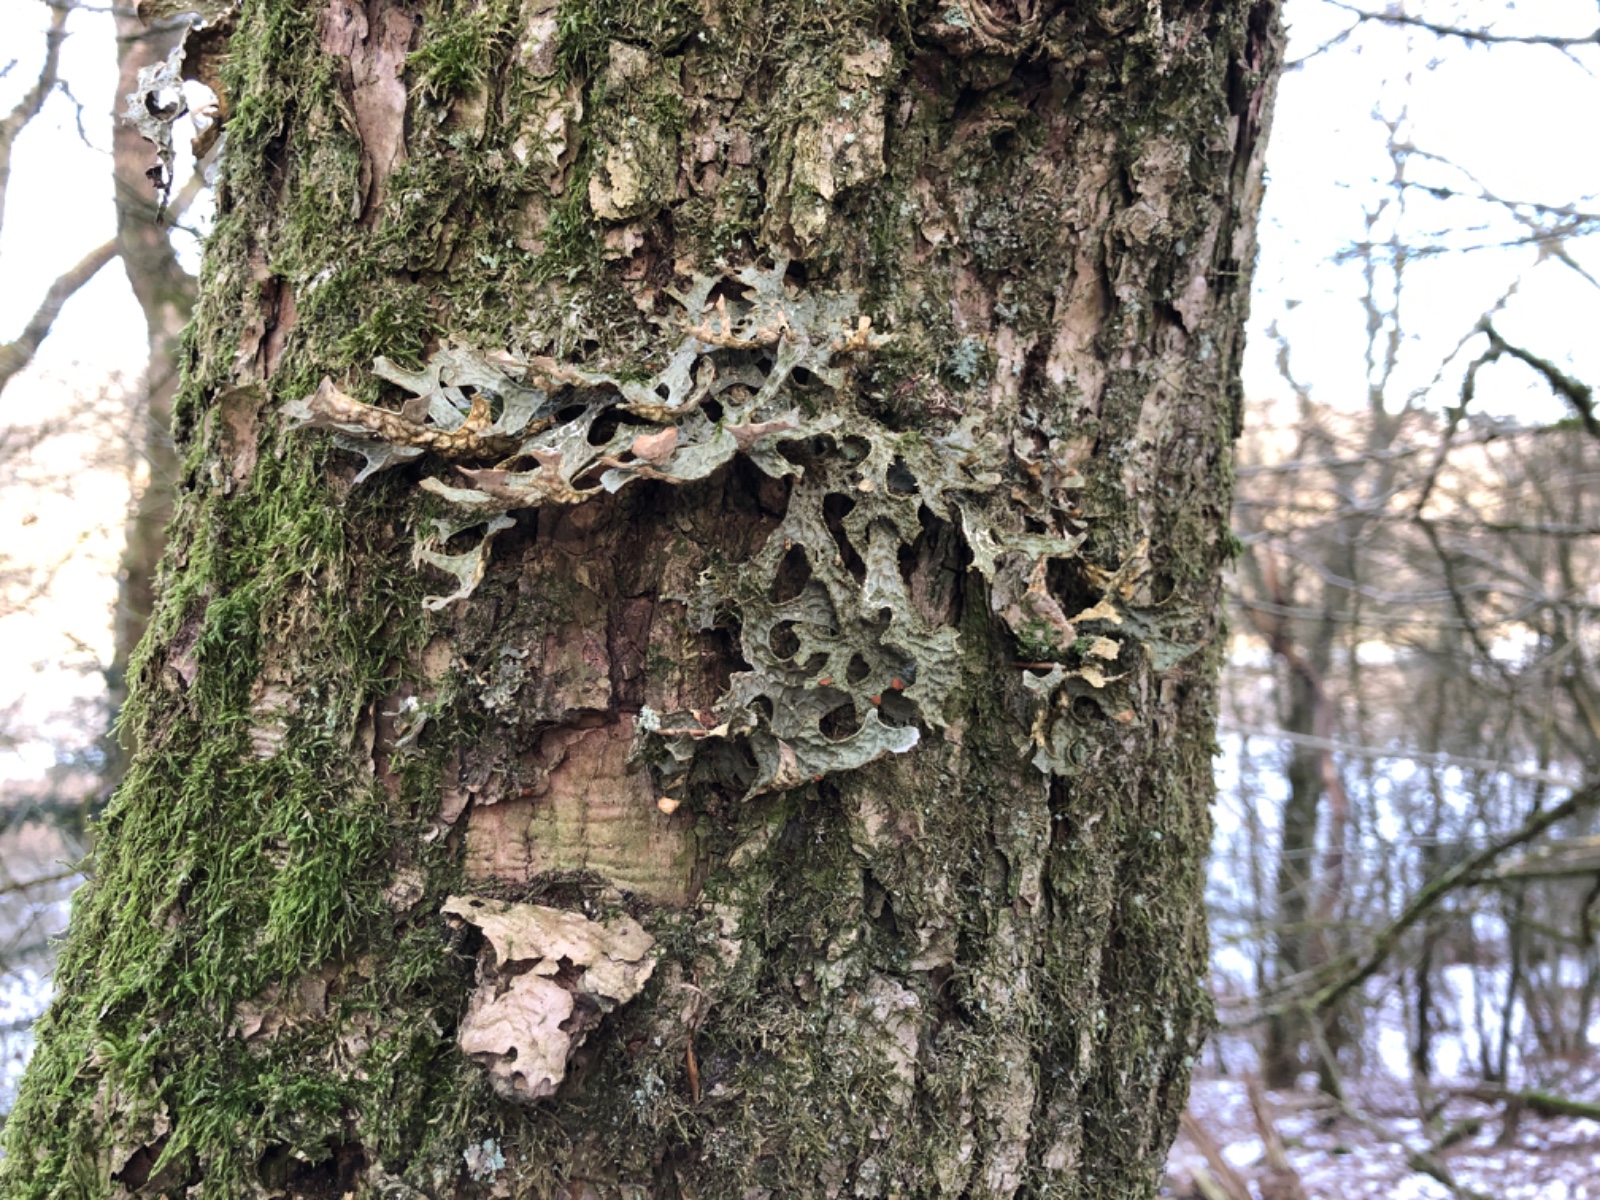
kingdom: Fungi
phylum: Ascomycota
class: Lecanoromycetes
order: Peltigerales
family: Lobariaceae
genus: Lobaria
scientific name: Lobaria pulmonaria
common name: almindelig lungelav
